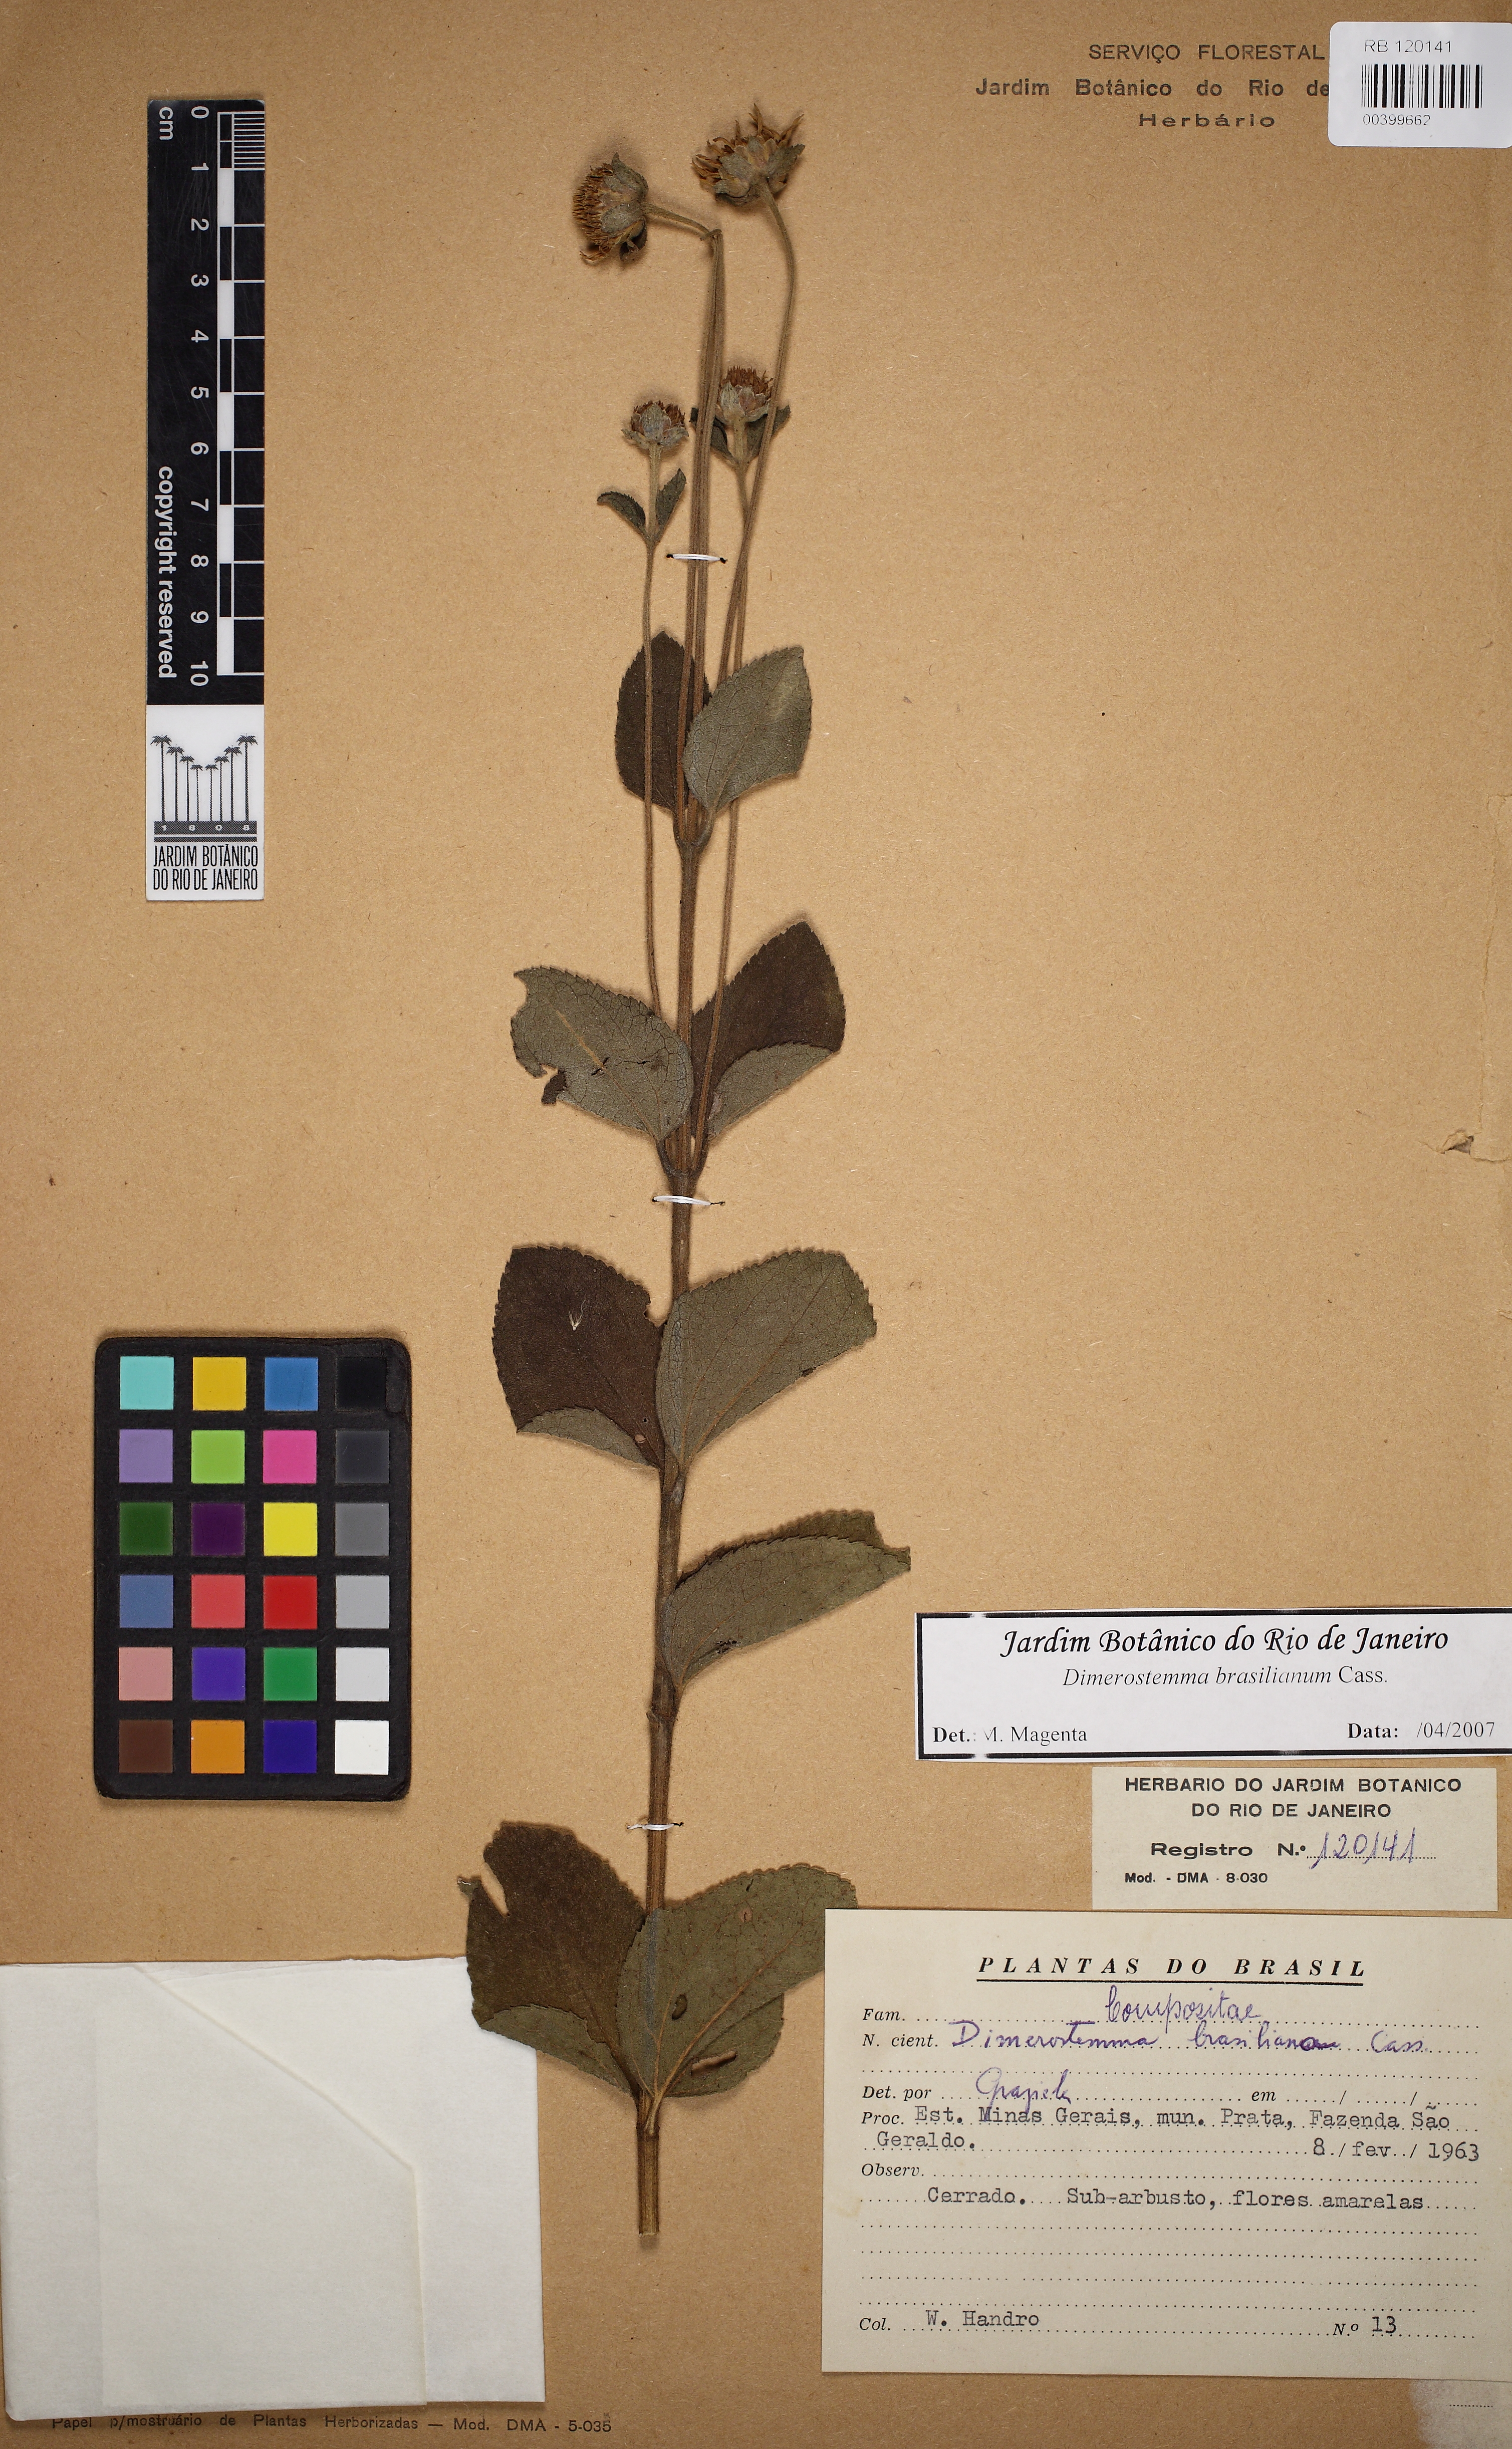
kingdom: Plantae
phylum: Tracheophyta
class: Magnoliopsida
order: Asterales
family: Asteraceae
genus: Dimerostemma
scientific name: Dimerostemma brasilianum
